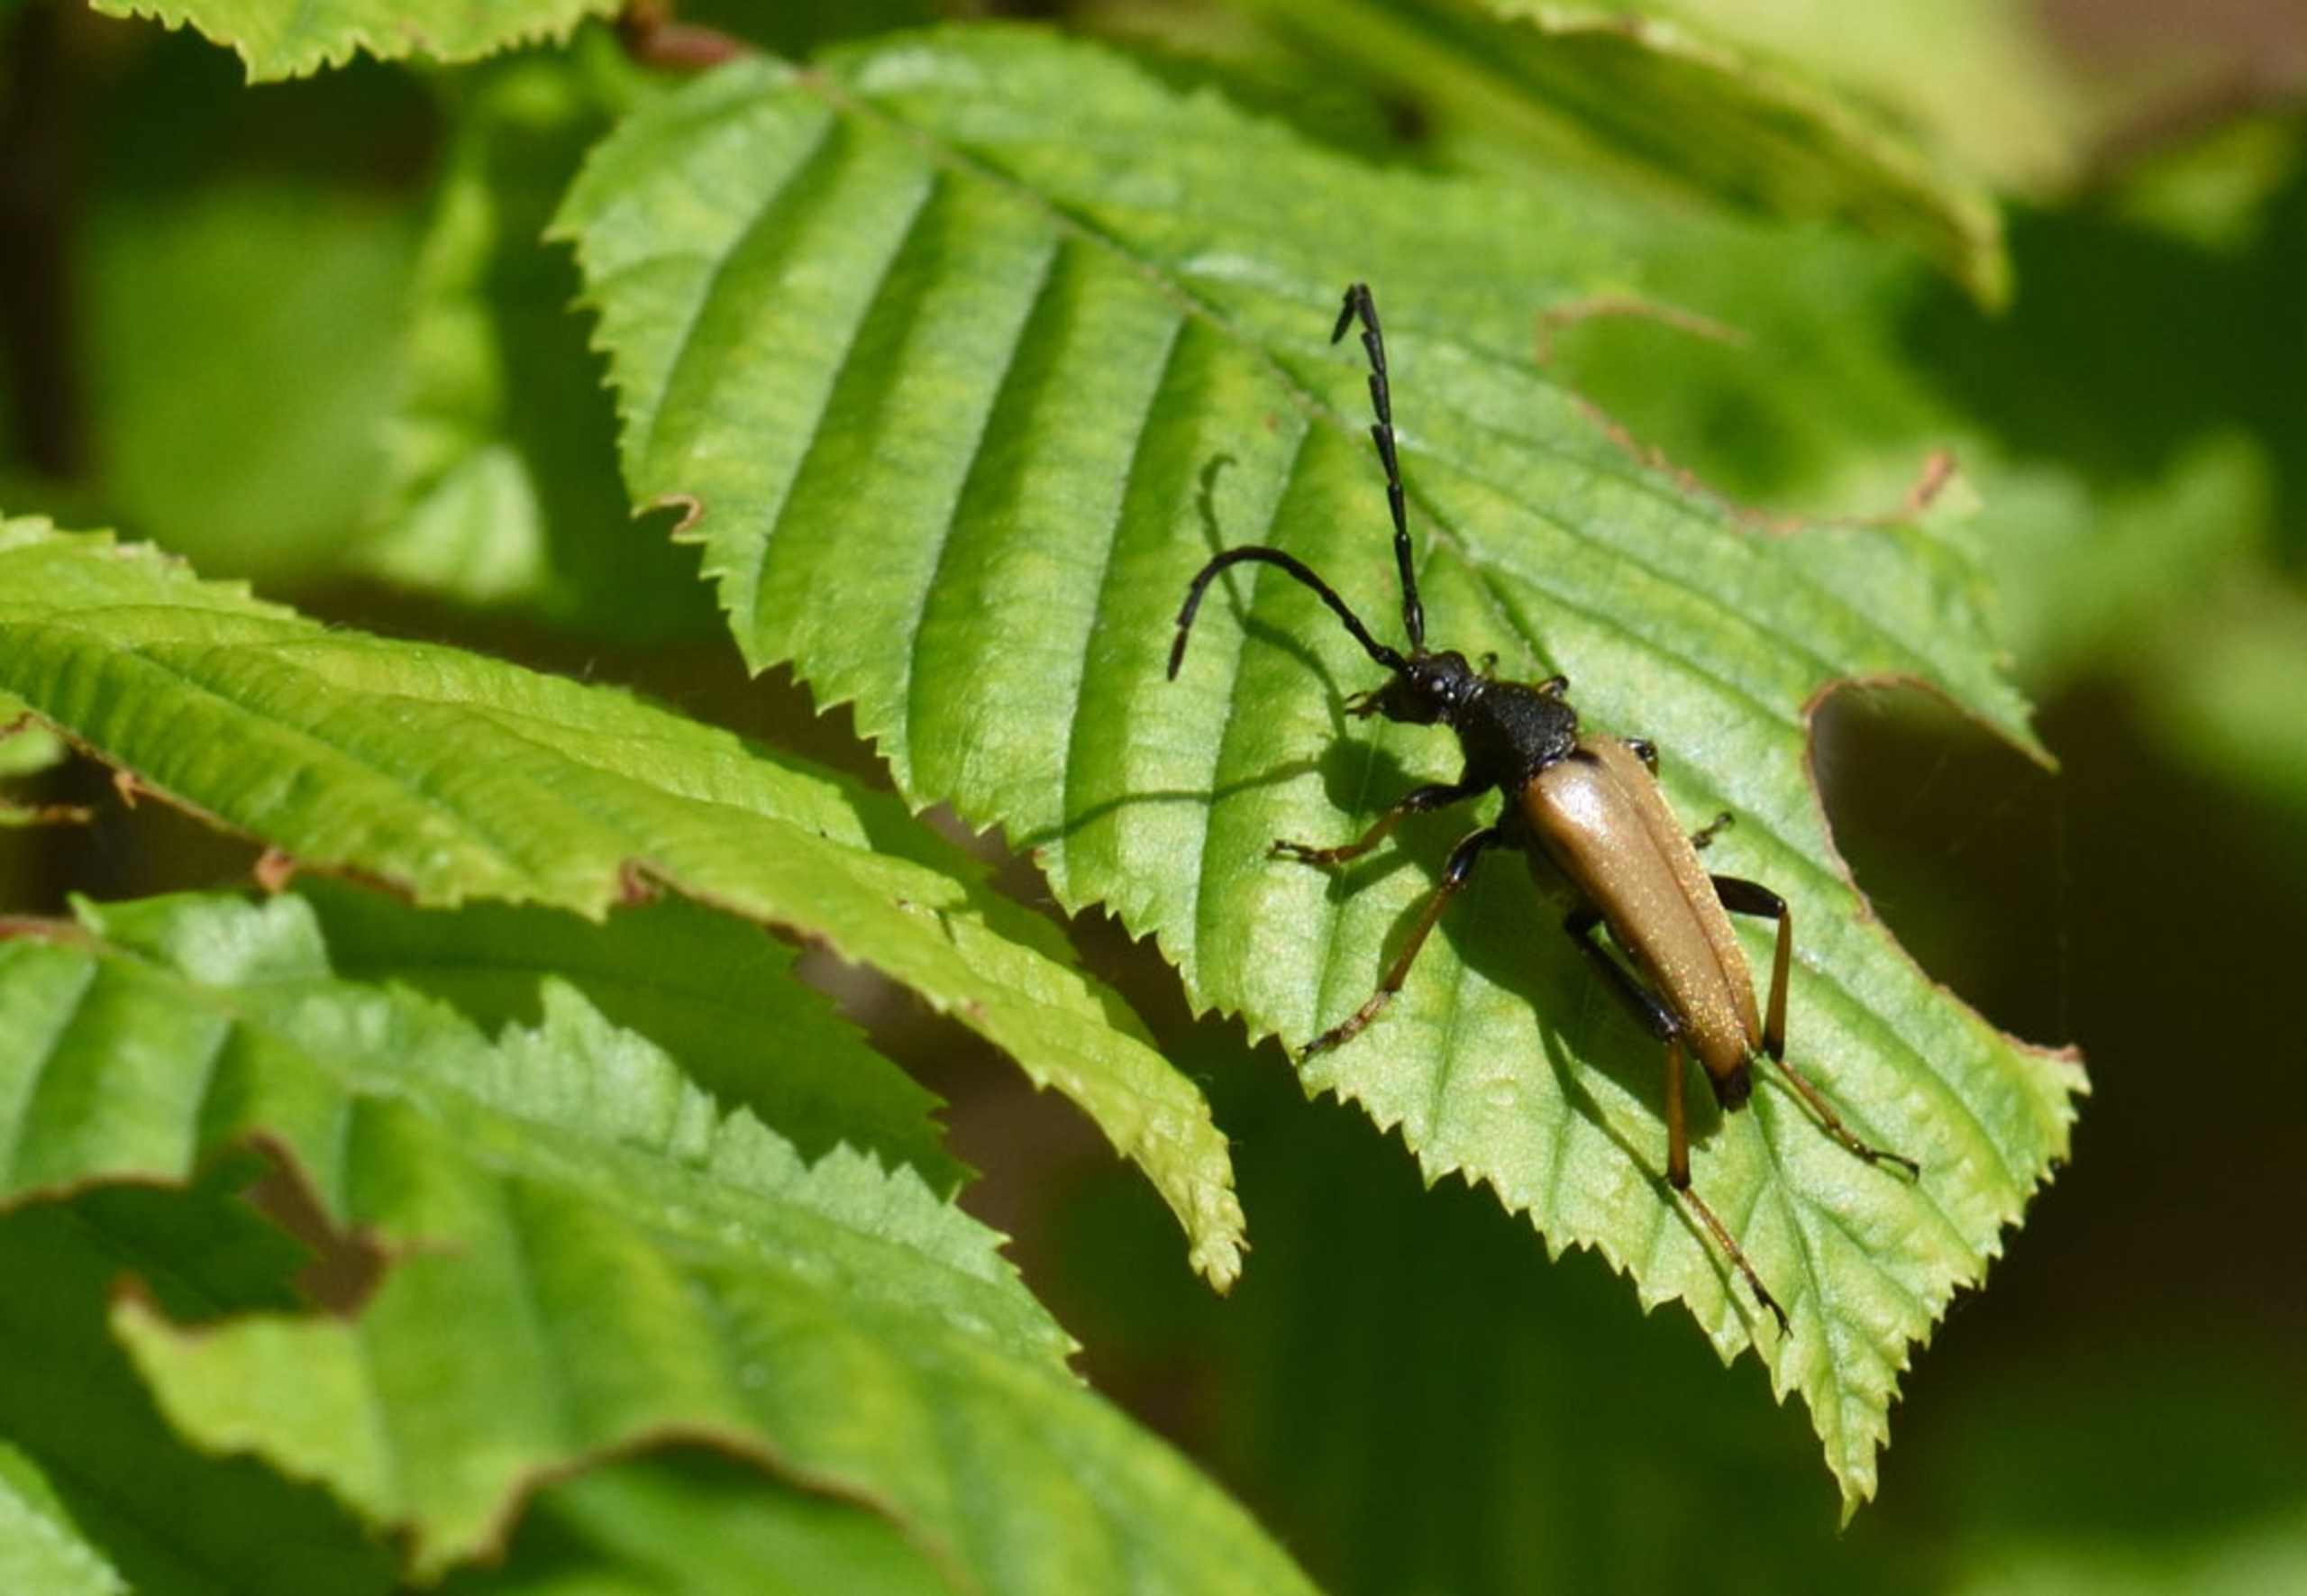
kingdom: Animalia
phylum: Arthropoda
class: Insecta
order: Coleoptera
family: Cerambycidae
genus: Stictoleptura
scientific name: Stictoleptura rubra
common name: Rød blomsterbuk
